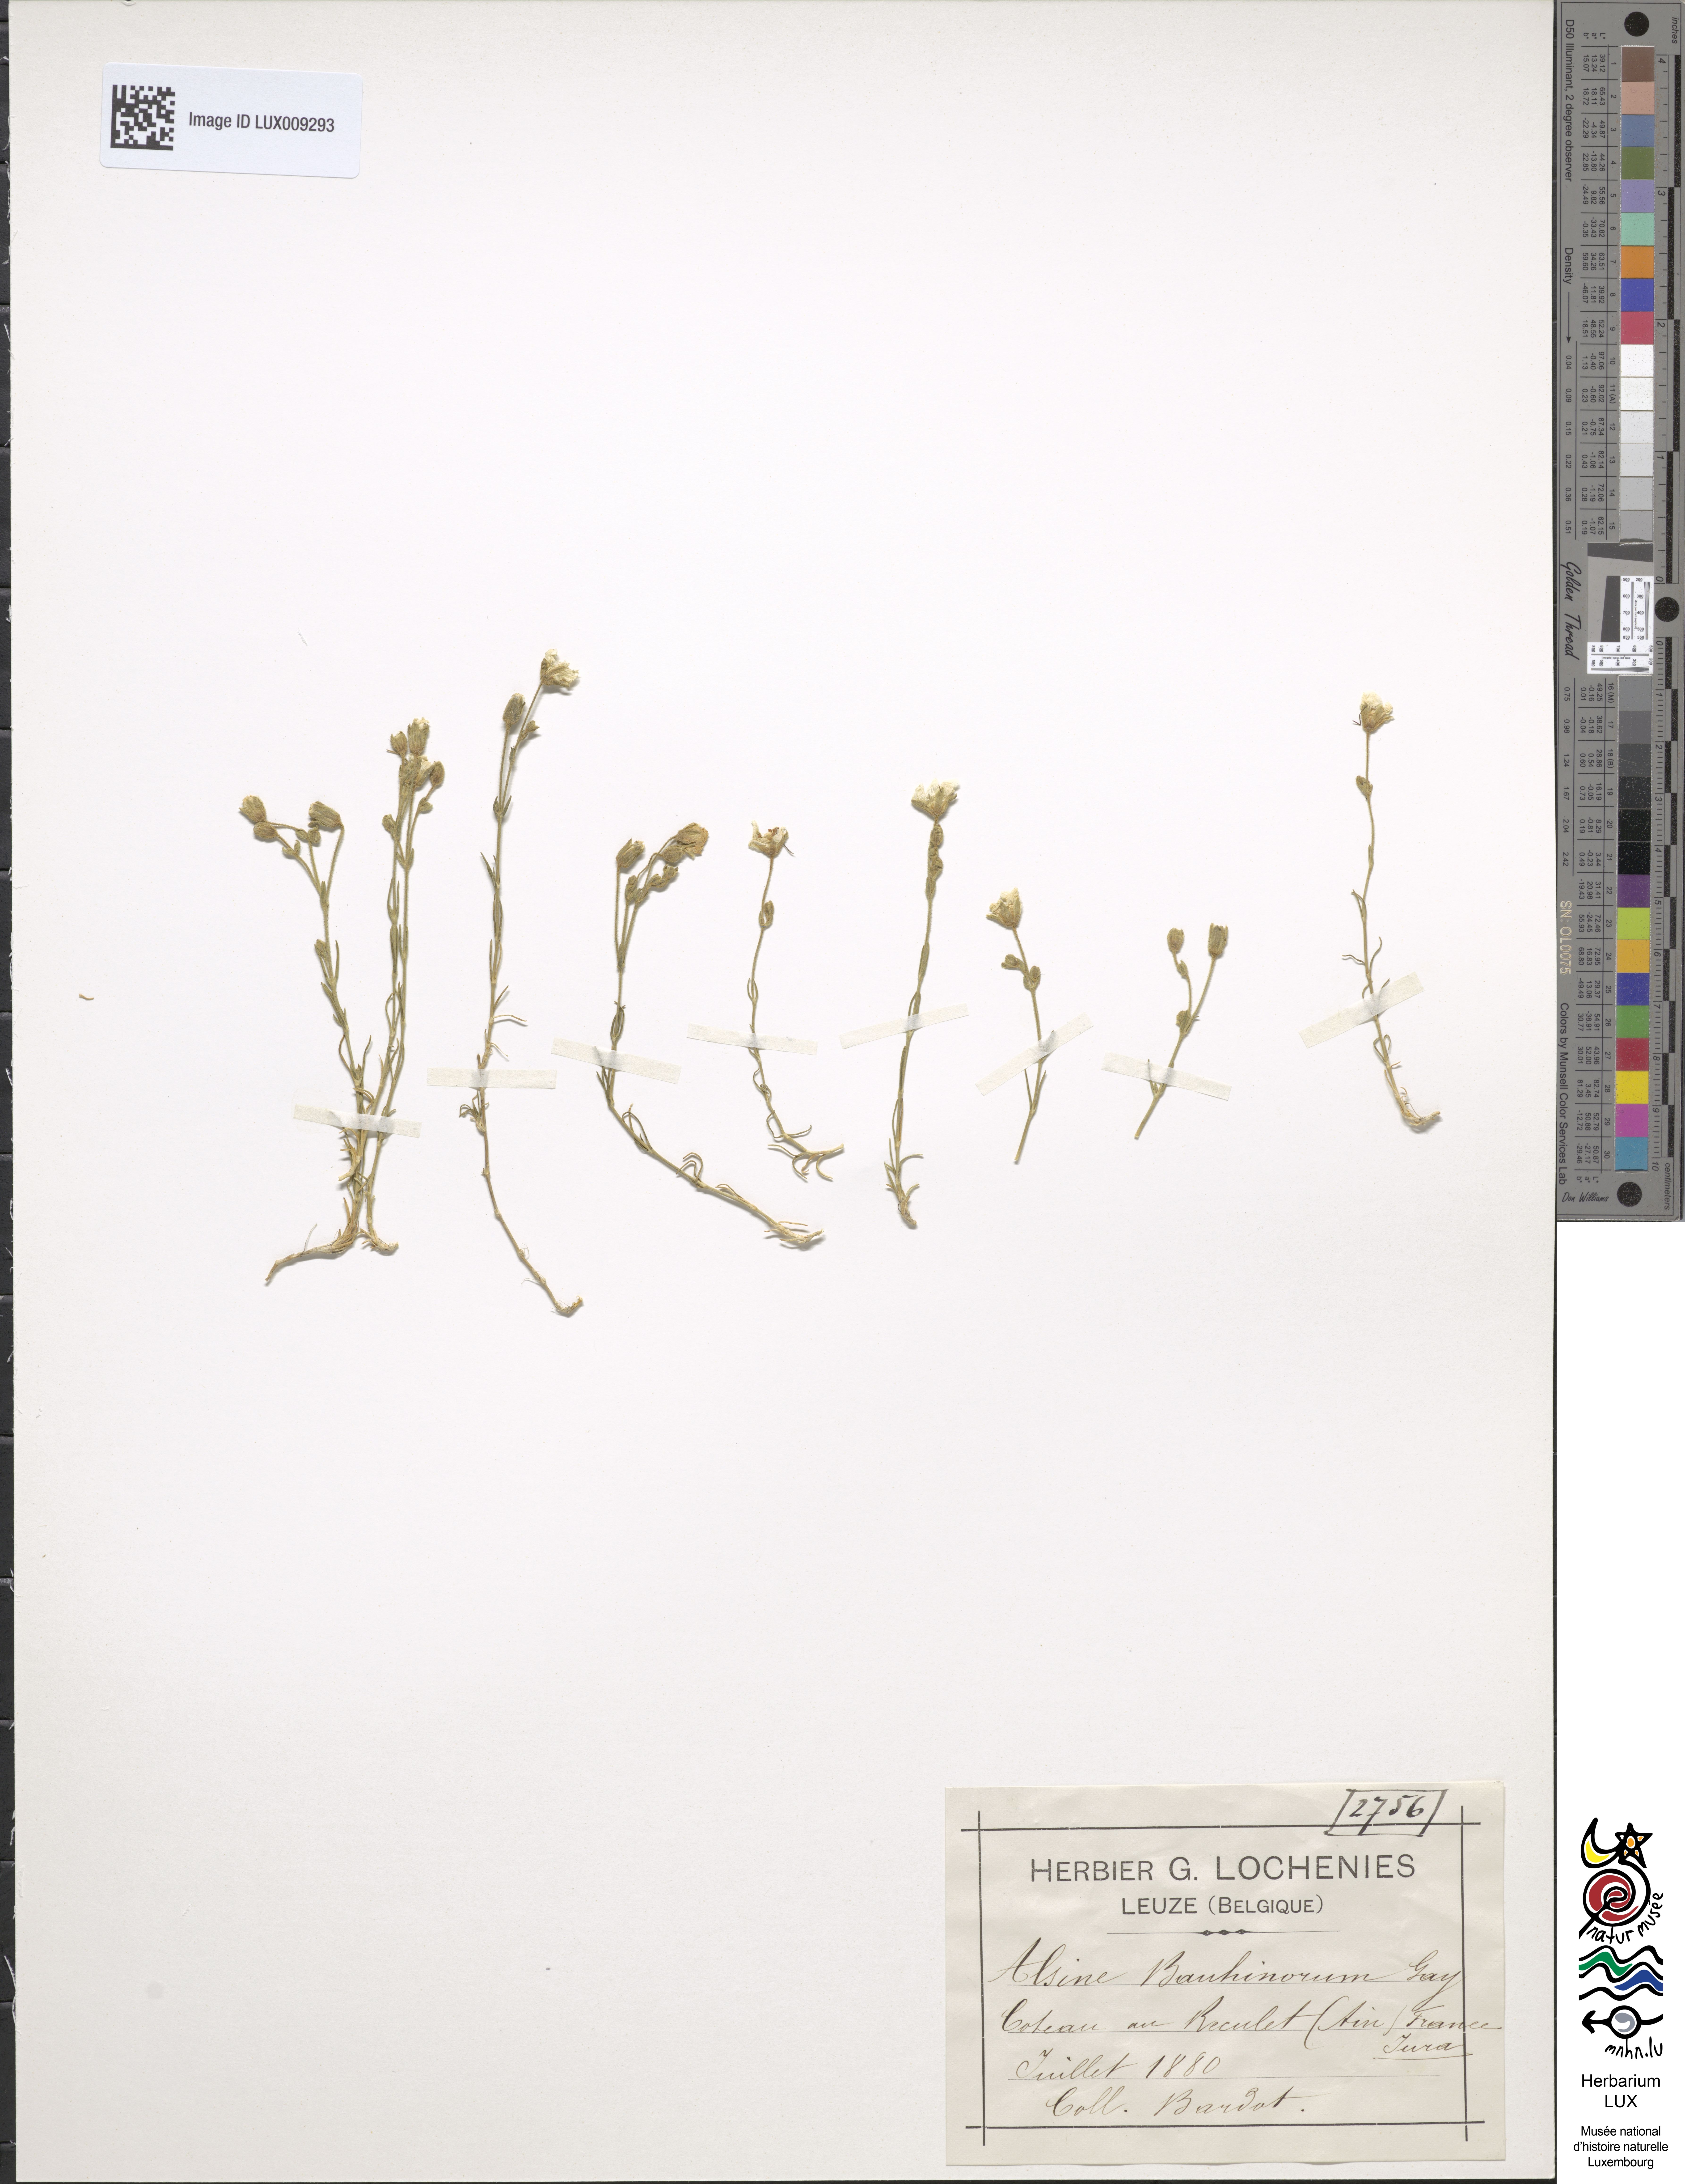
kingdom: Plantae
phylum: Tracheophyta
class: Magnoliopsida
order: Caryophyllales
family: Caryophyllaceae
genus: Cherleria
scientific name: Cherleria capillacea
